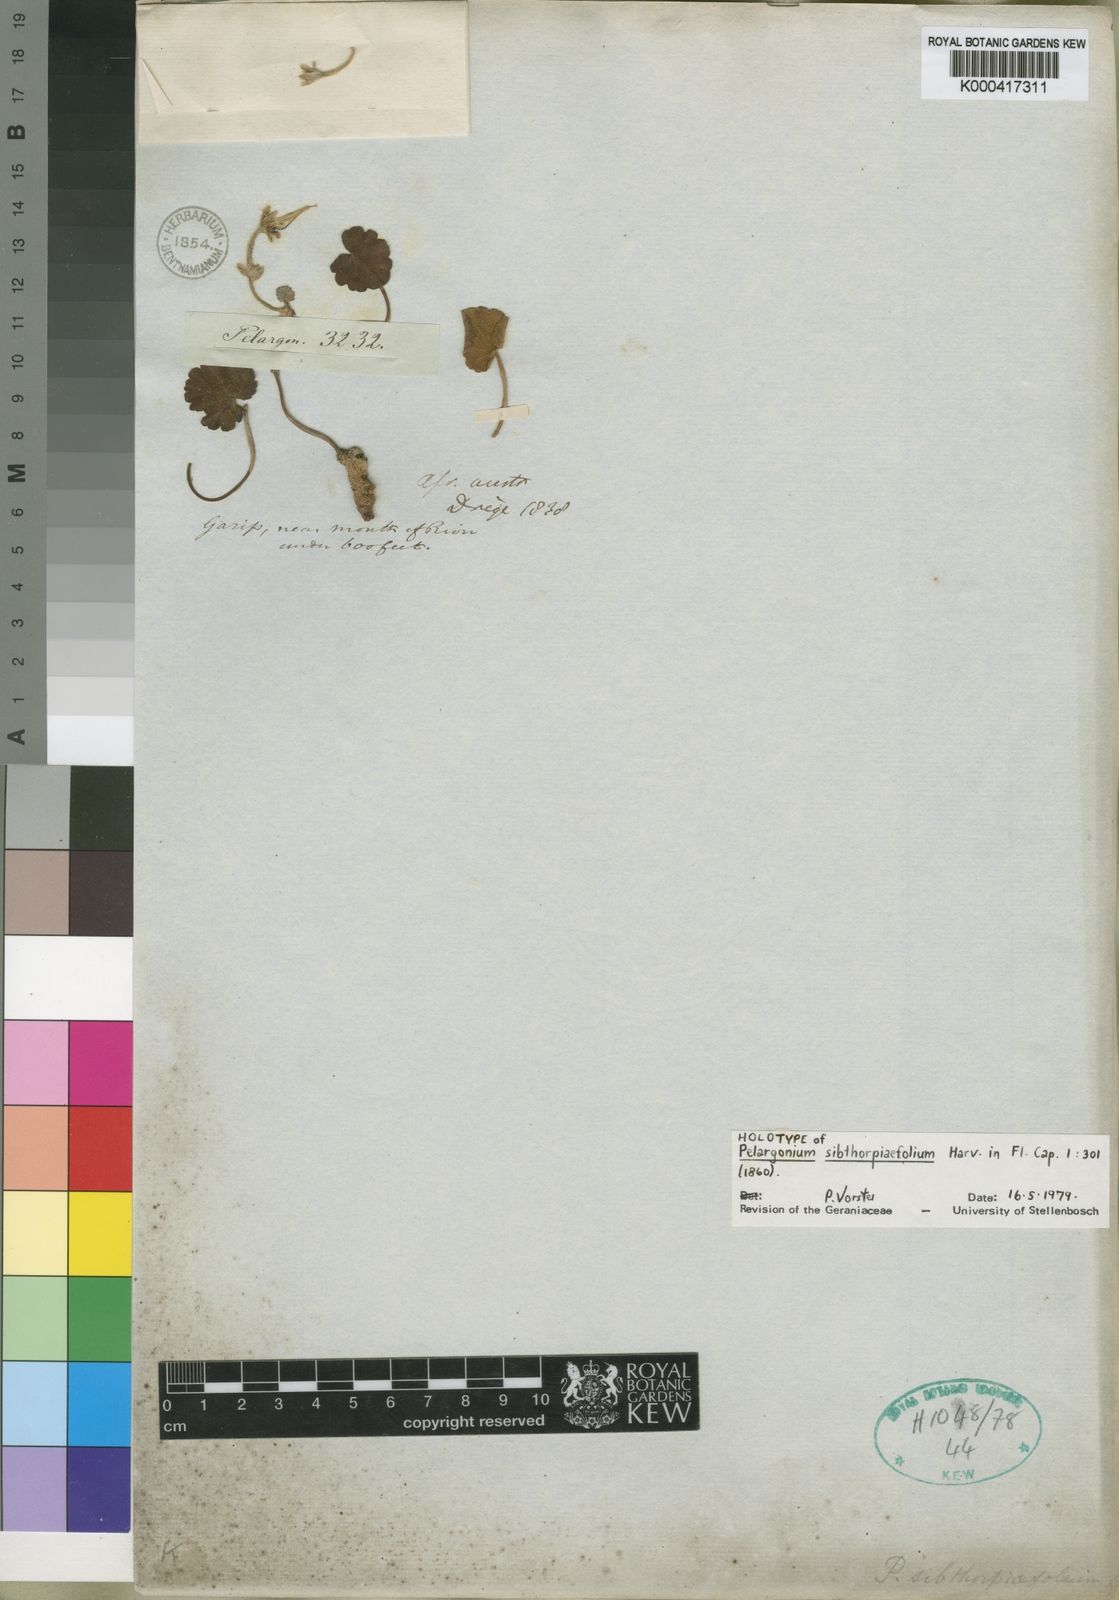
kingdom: Plantae
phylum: Tracheophyta
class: Magnoliopsida
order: Geraniales
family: Geraniaceae
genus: Pelargonium
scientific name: Pelargonium sibthorpiifolium
